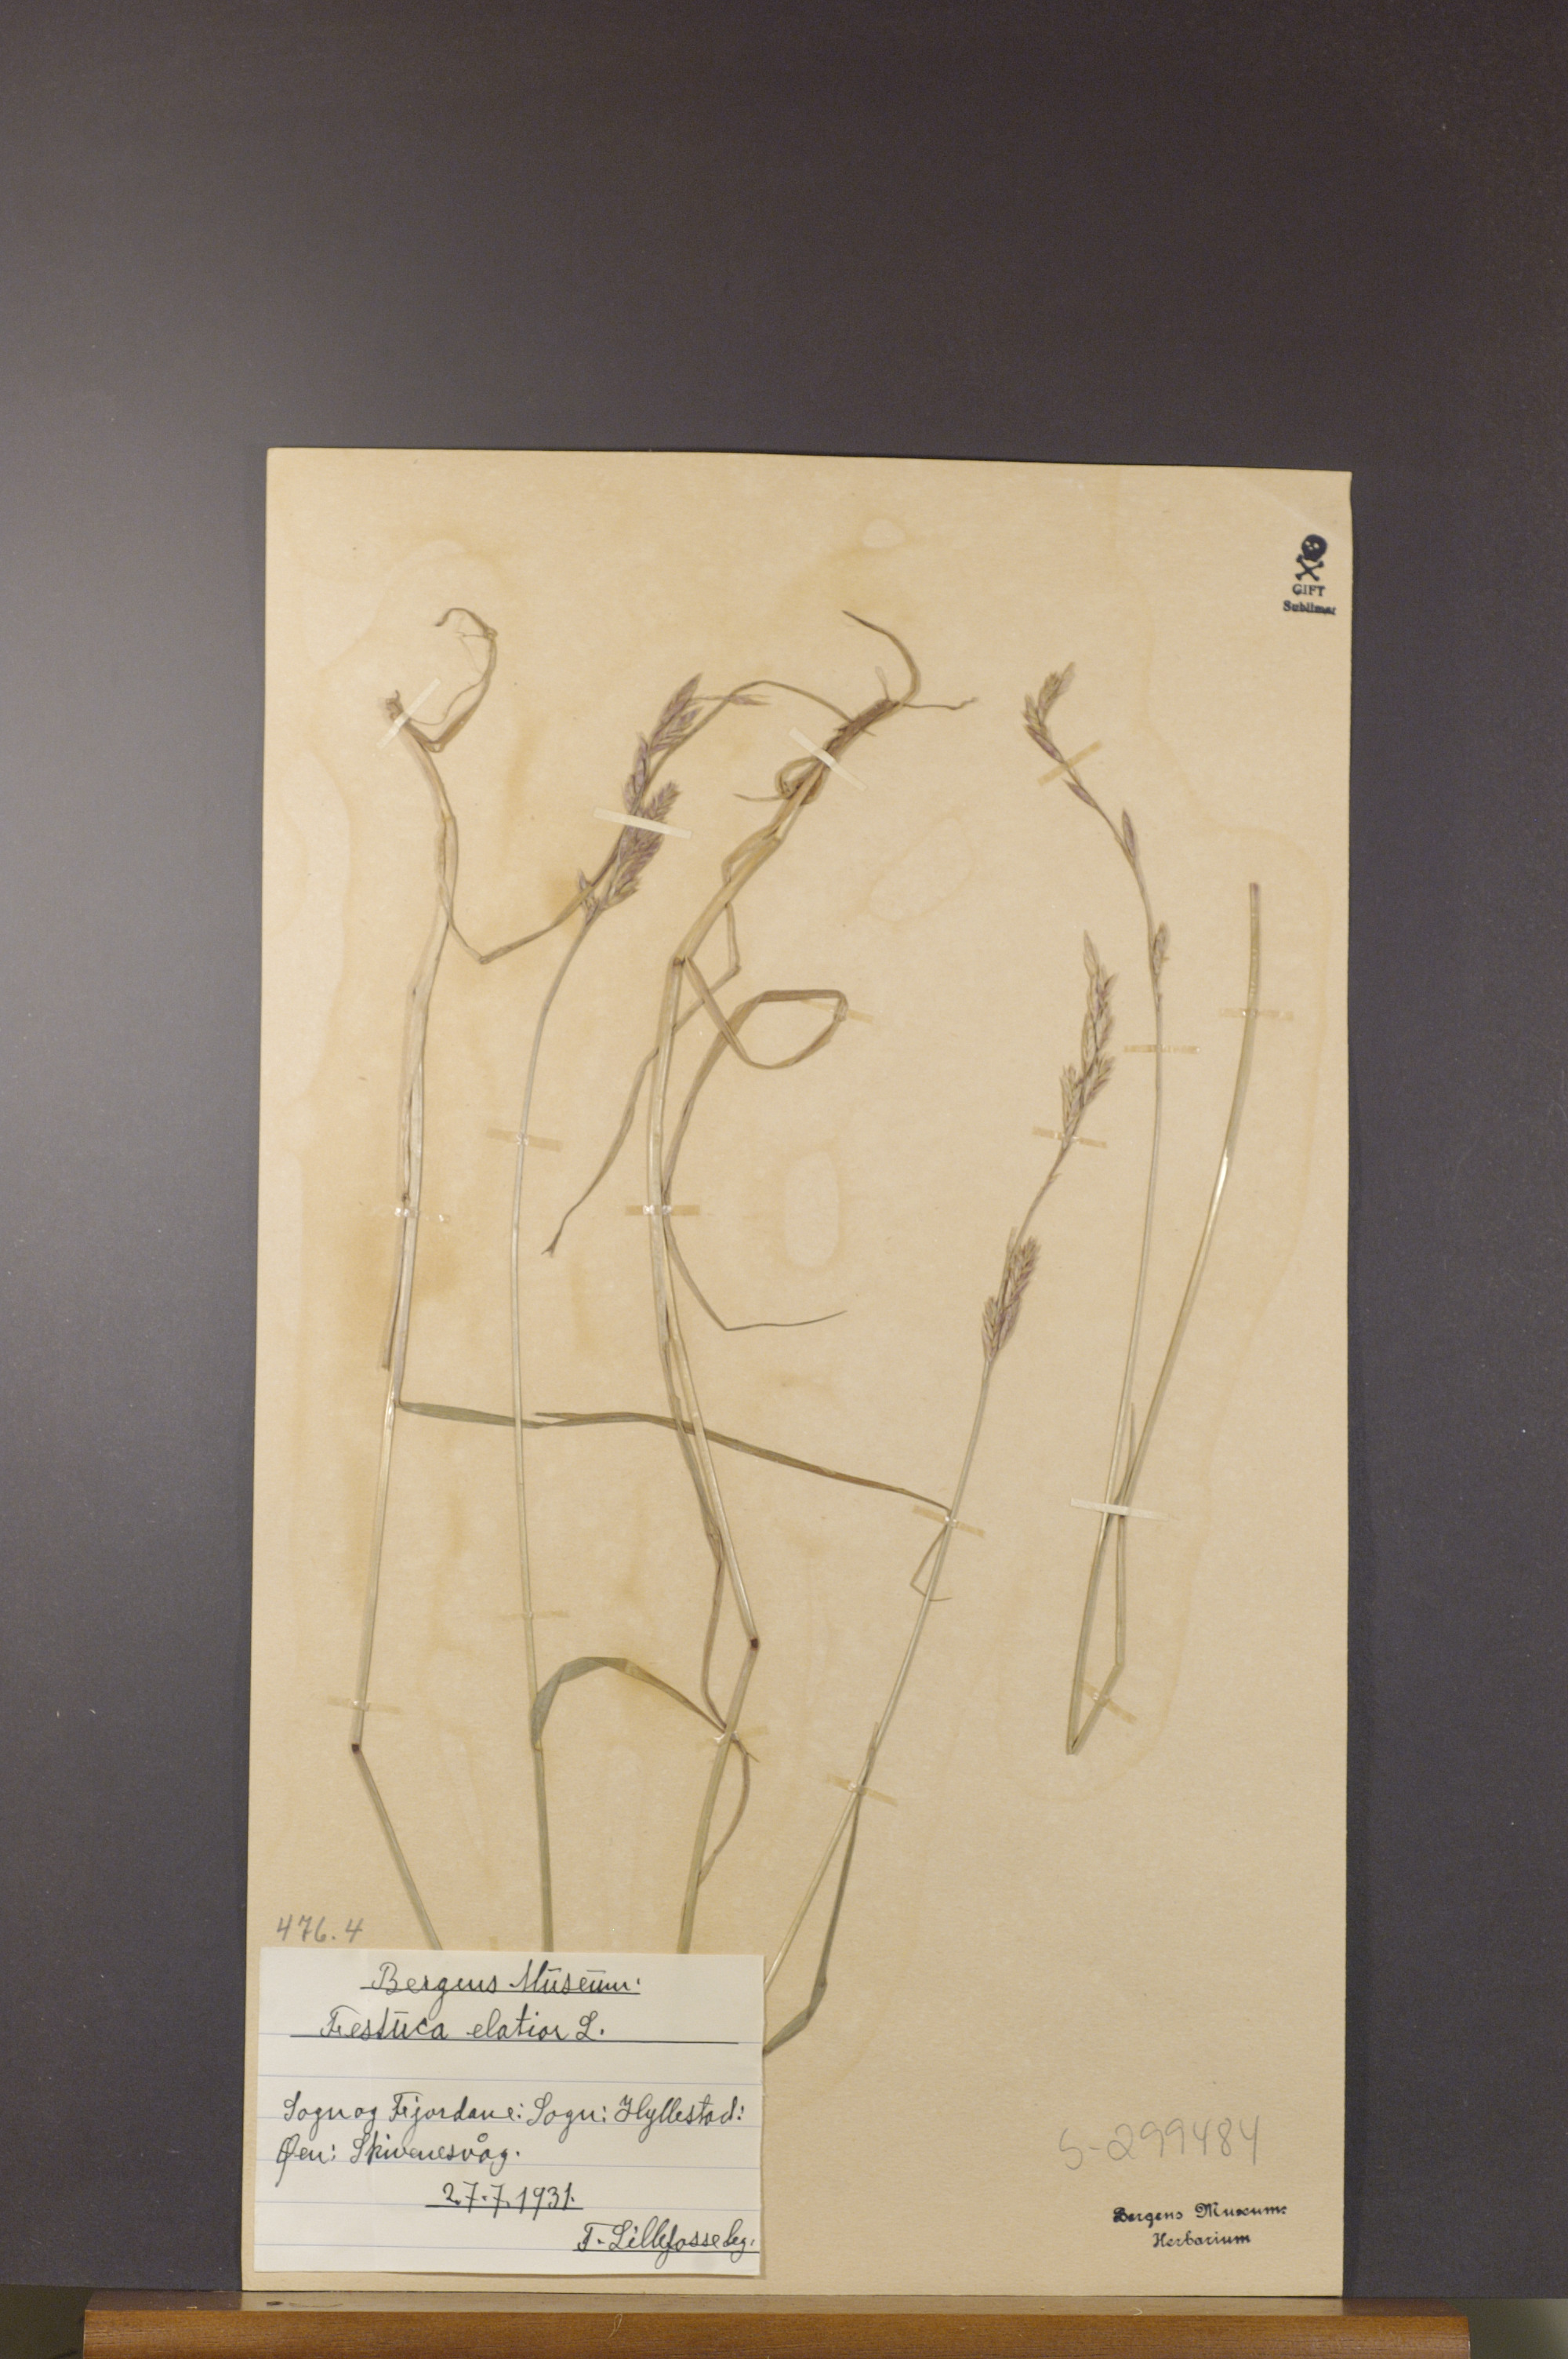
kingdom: Plantae
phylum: Tracheophyta
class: Liliopsida
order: Poales
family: Poaceae
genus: Lolium
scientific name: Lolium arundinaceum
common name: Reed fescue
